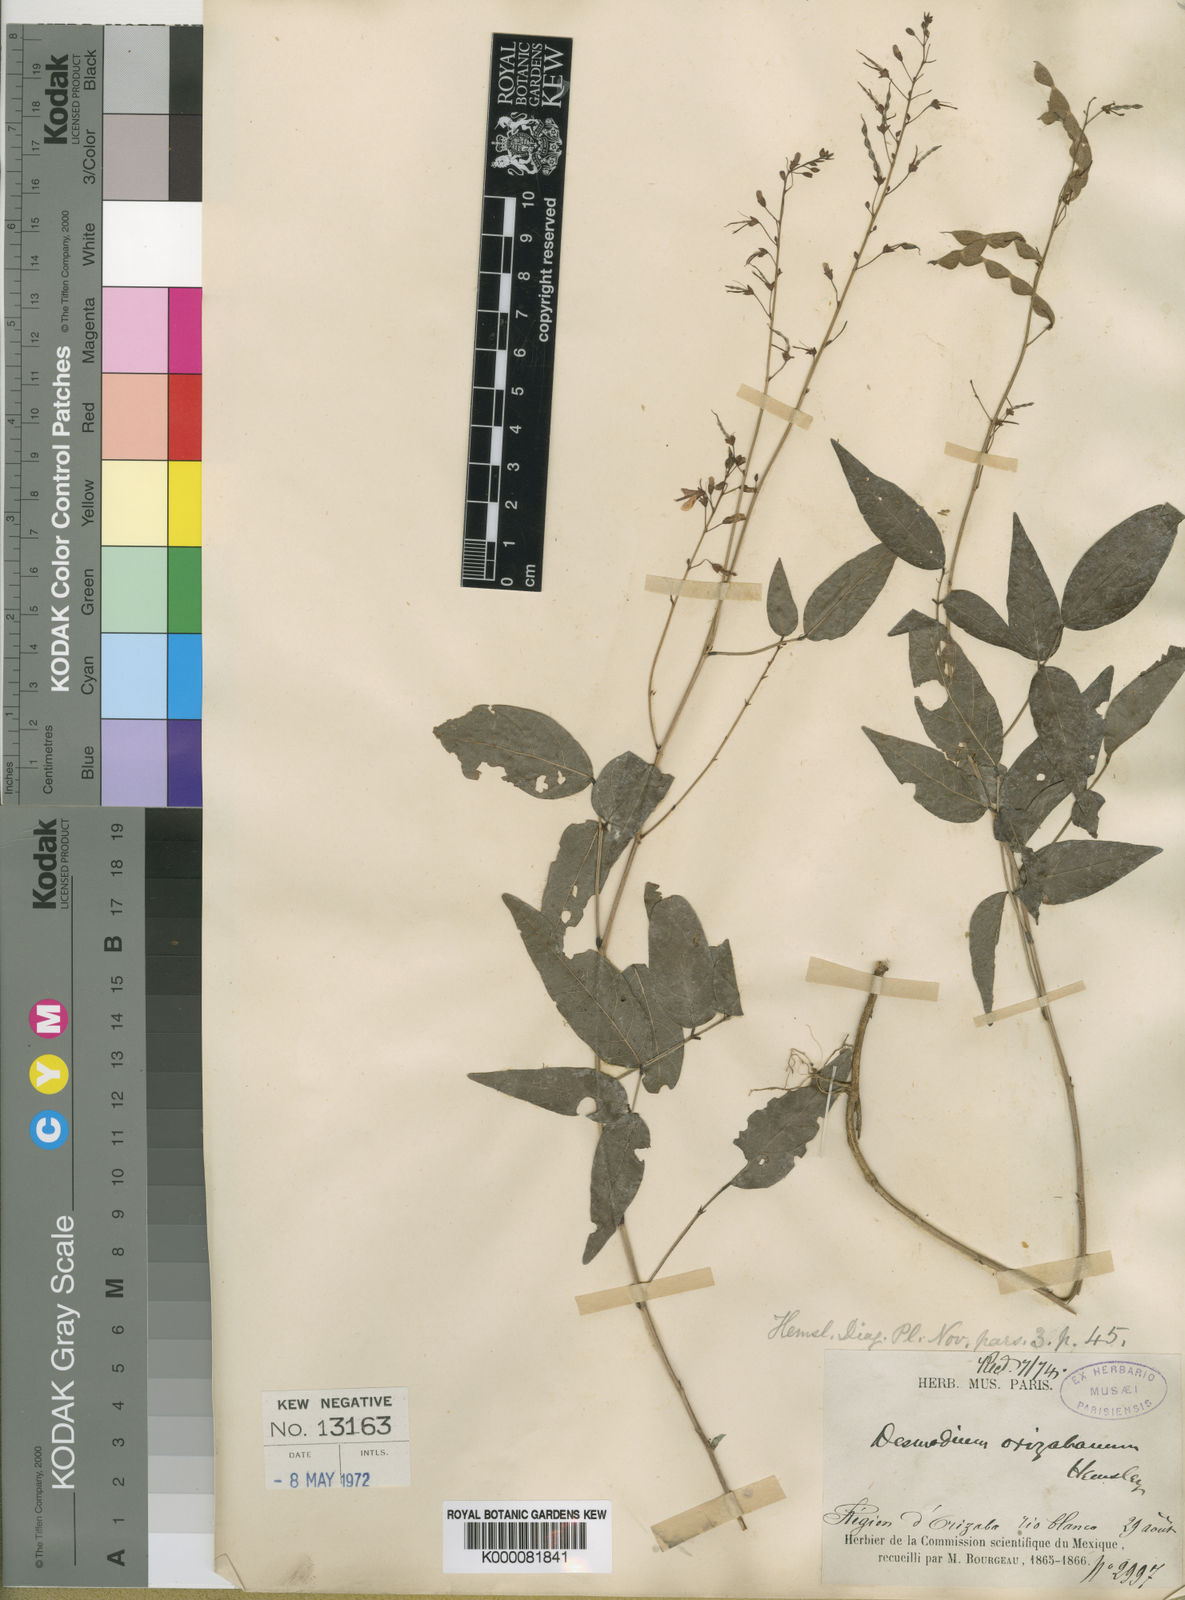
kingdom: Plantae
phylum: Tracheophyta
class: Magnoliopsida
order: Fabales
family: Fabaceae
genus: Desmodium
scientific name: Desmodium orizabanum
